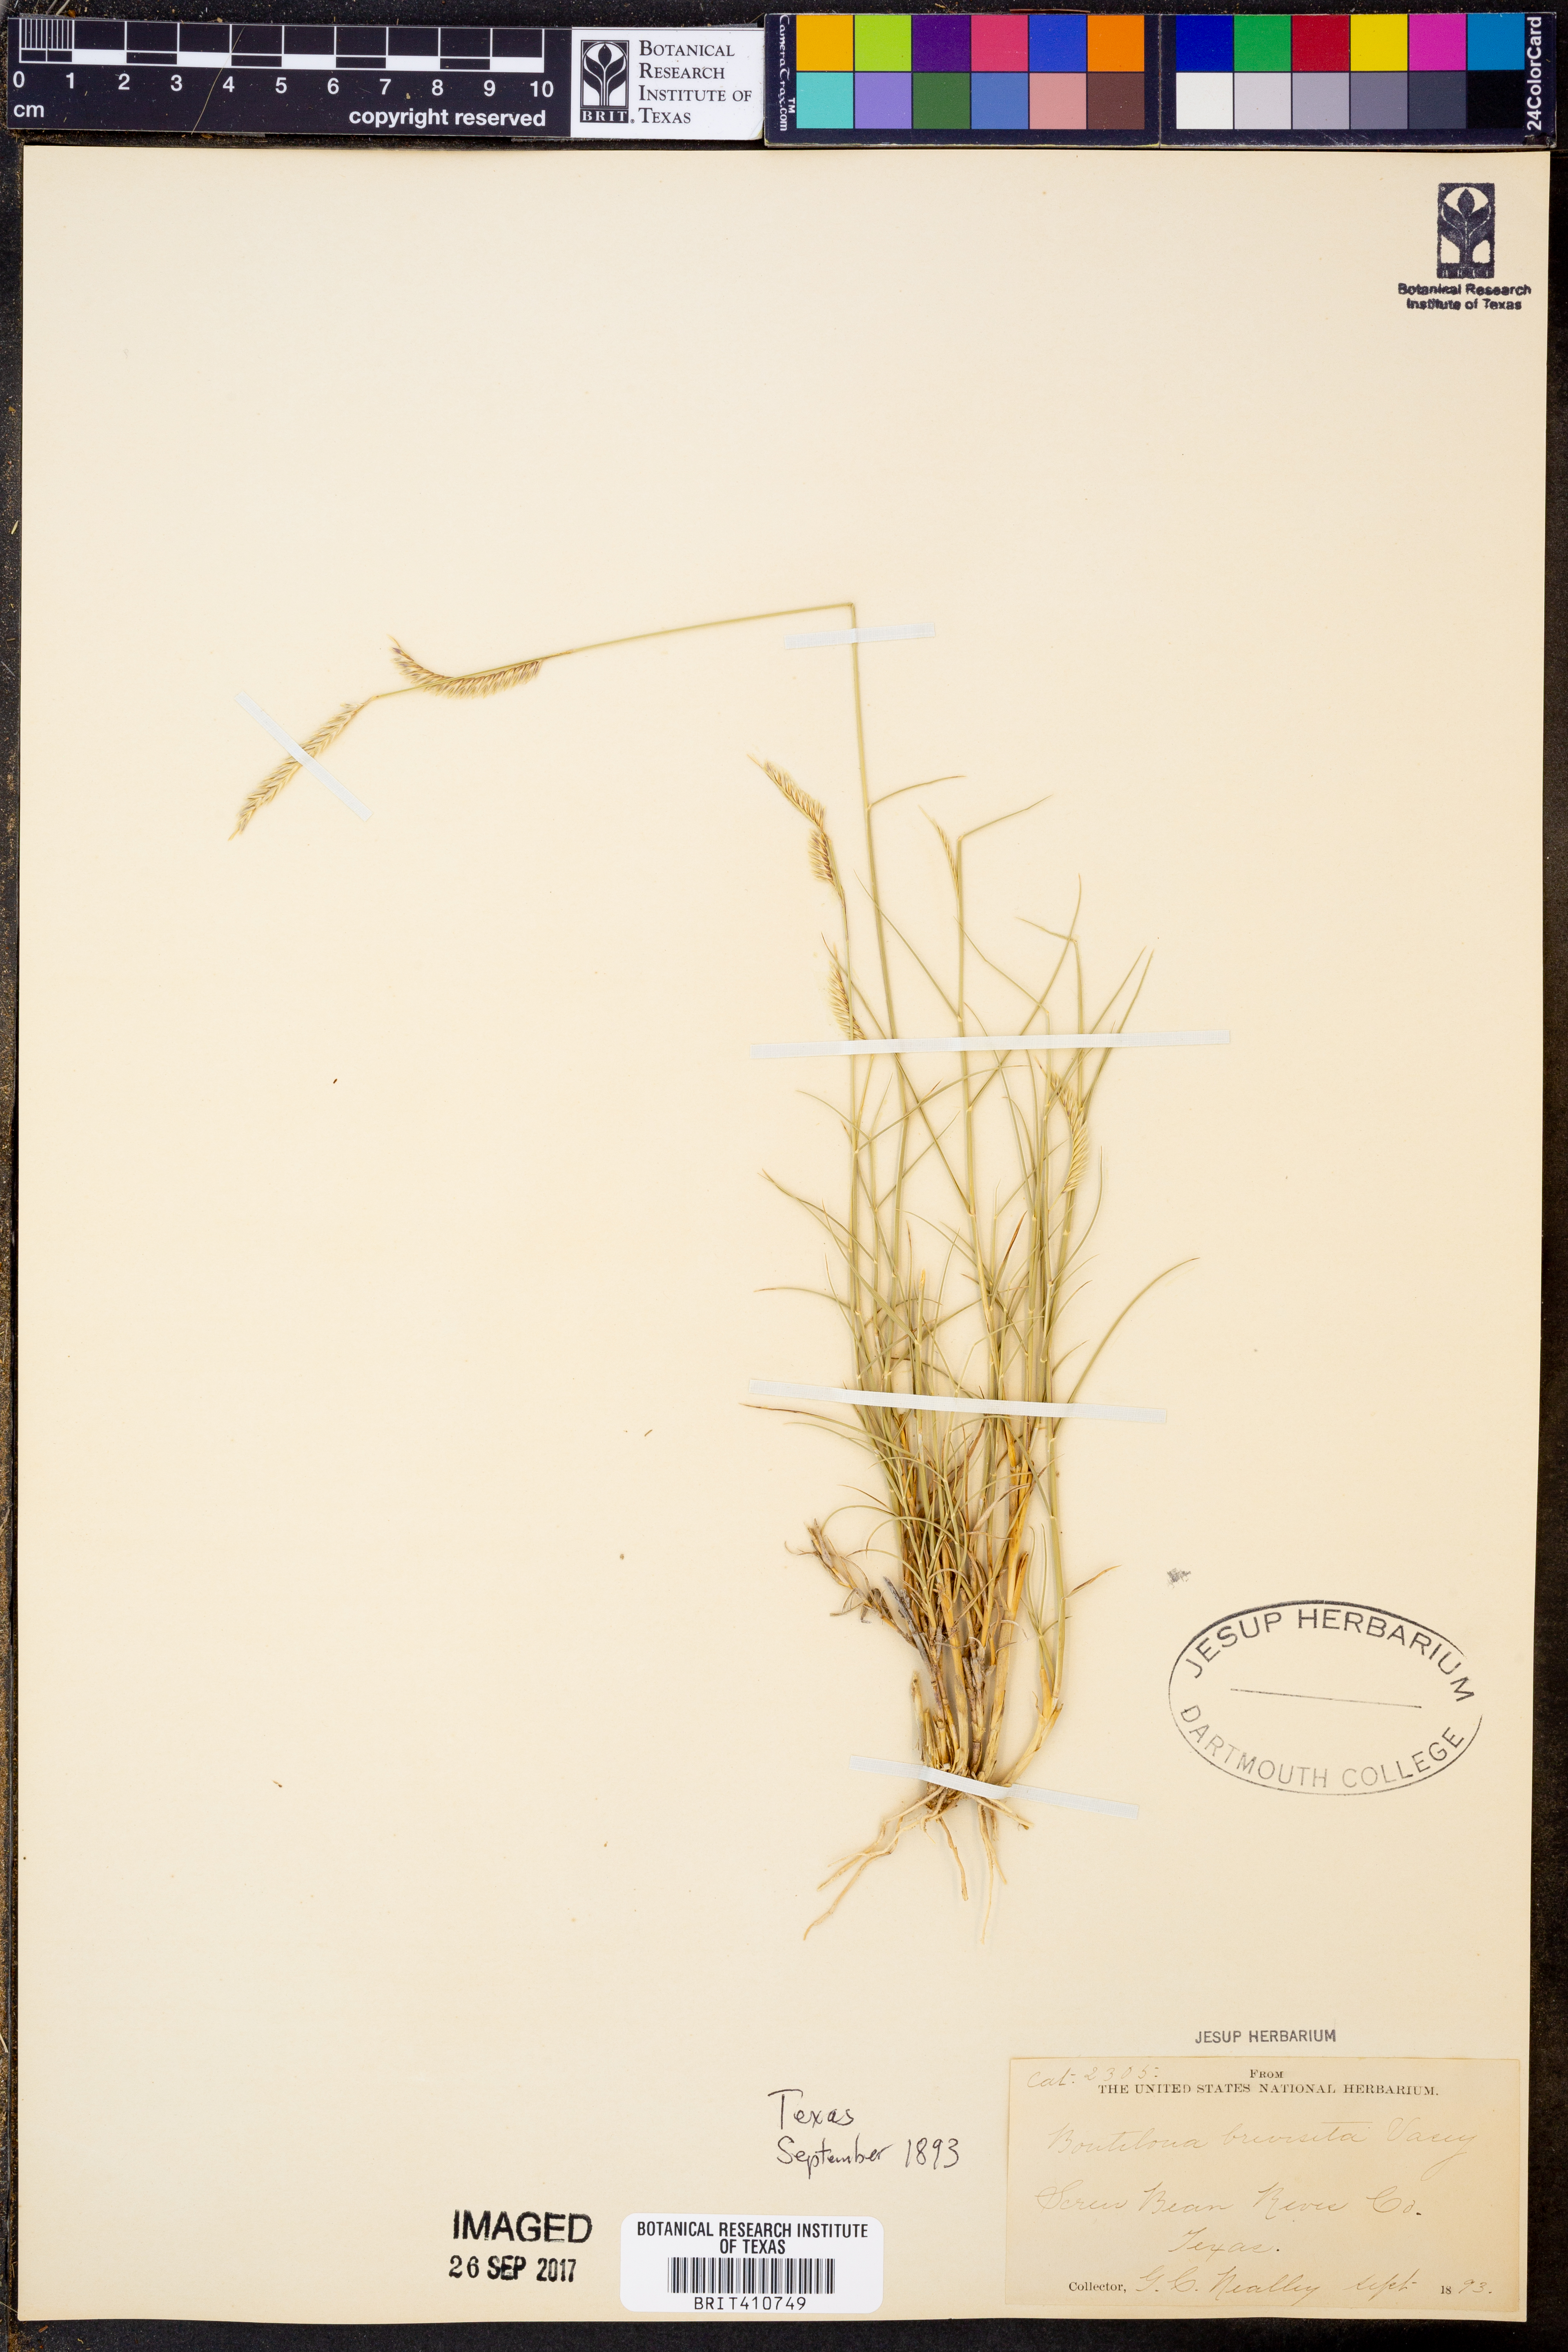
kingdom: Plantae
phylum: Tracheophyta
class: Liliopsida
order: Poales
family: Poaceae
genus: Bouteloua
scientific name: Bouteloua breviseta
